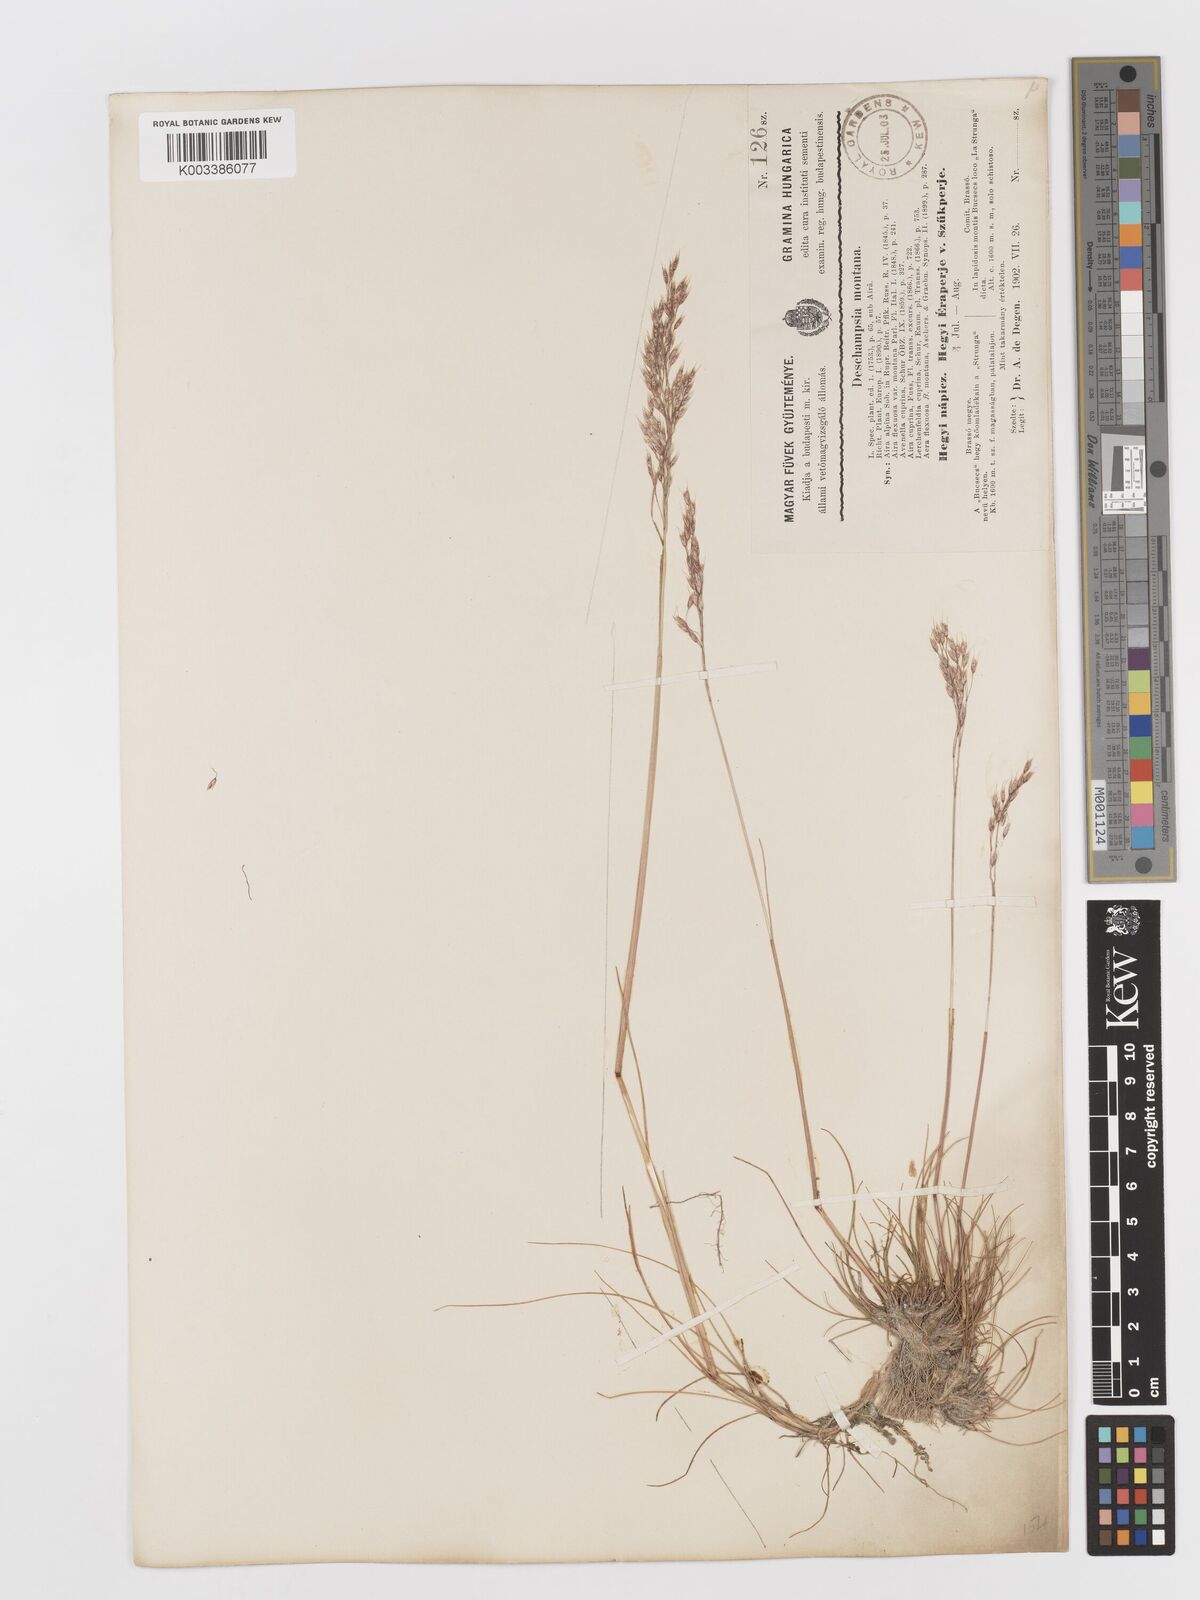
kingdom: Plantae
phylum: Tracheophyta
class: Liliopsida
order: Poales
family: Poaceae
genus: Avenella
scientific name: Avenella flexuosa
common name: Wavy hairgrass
